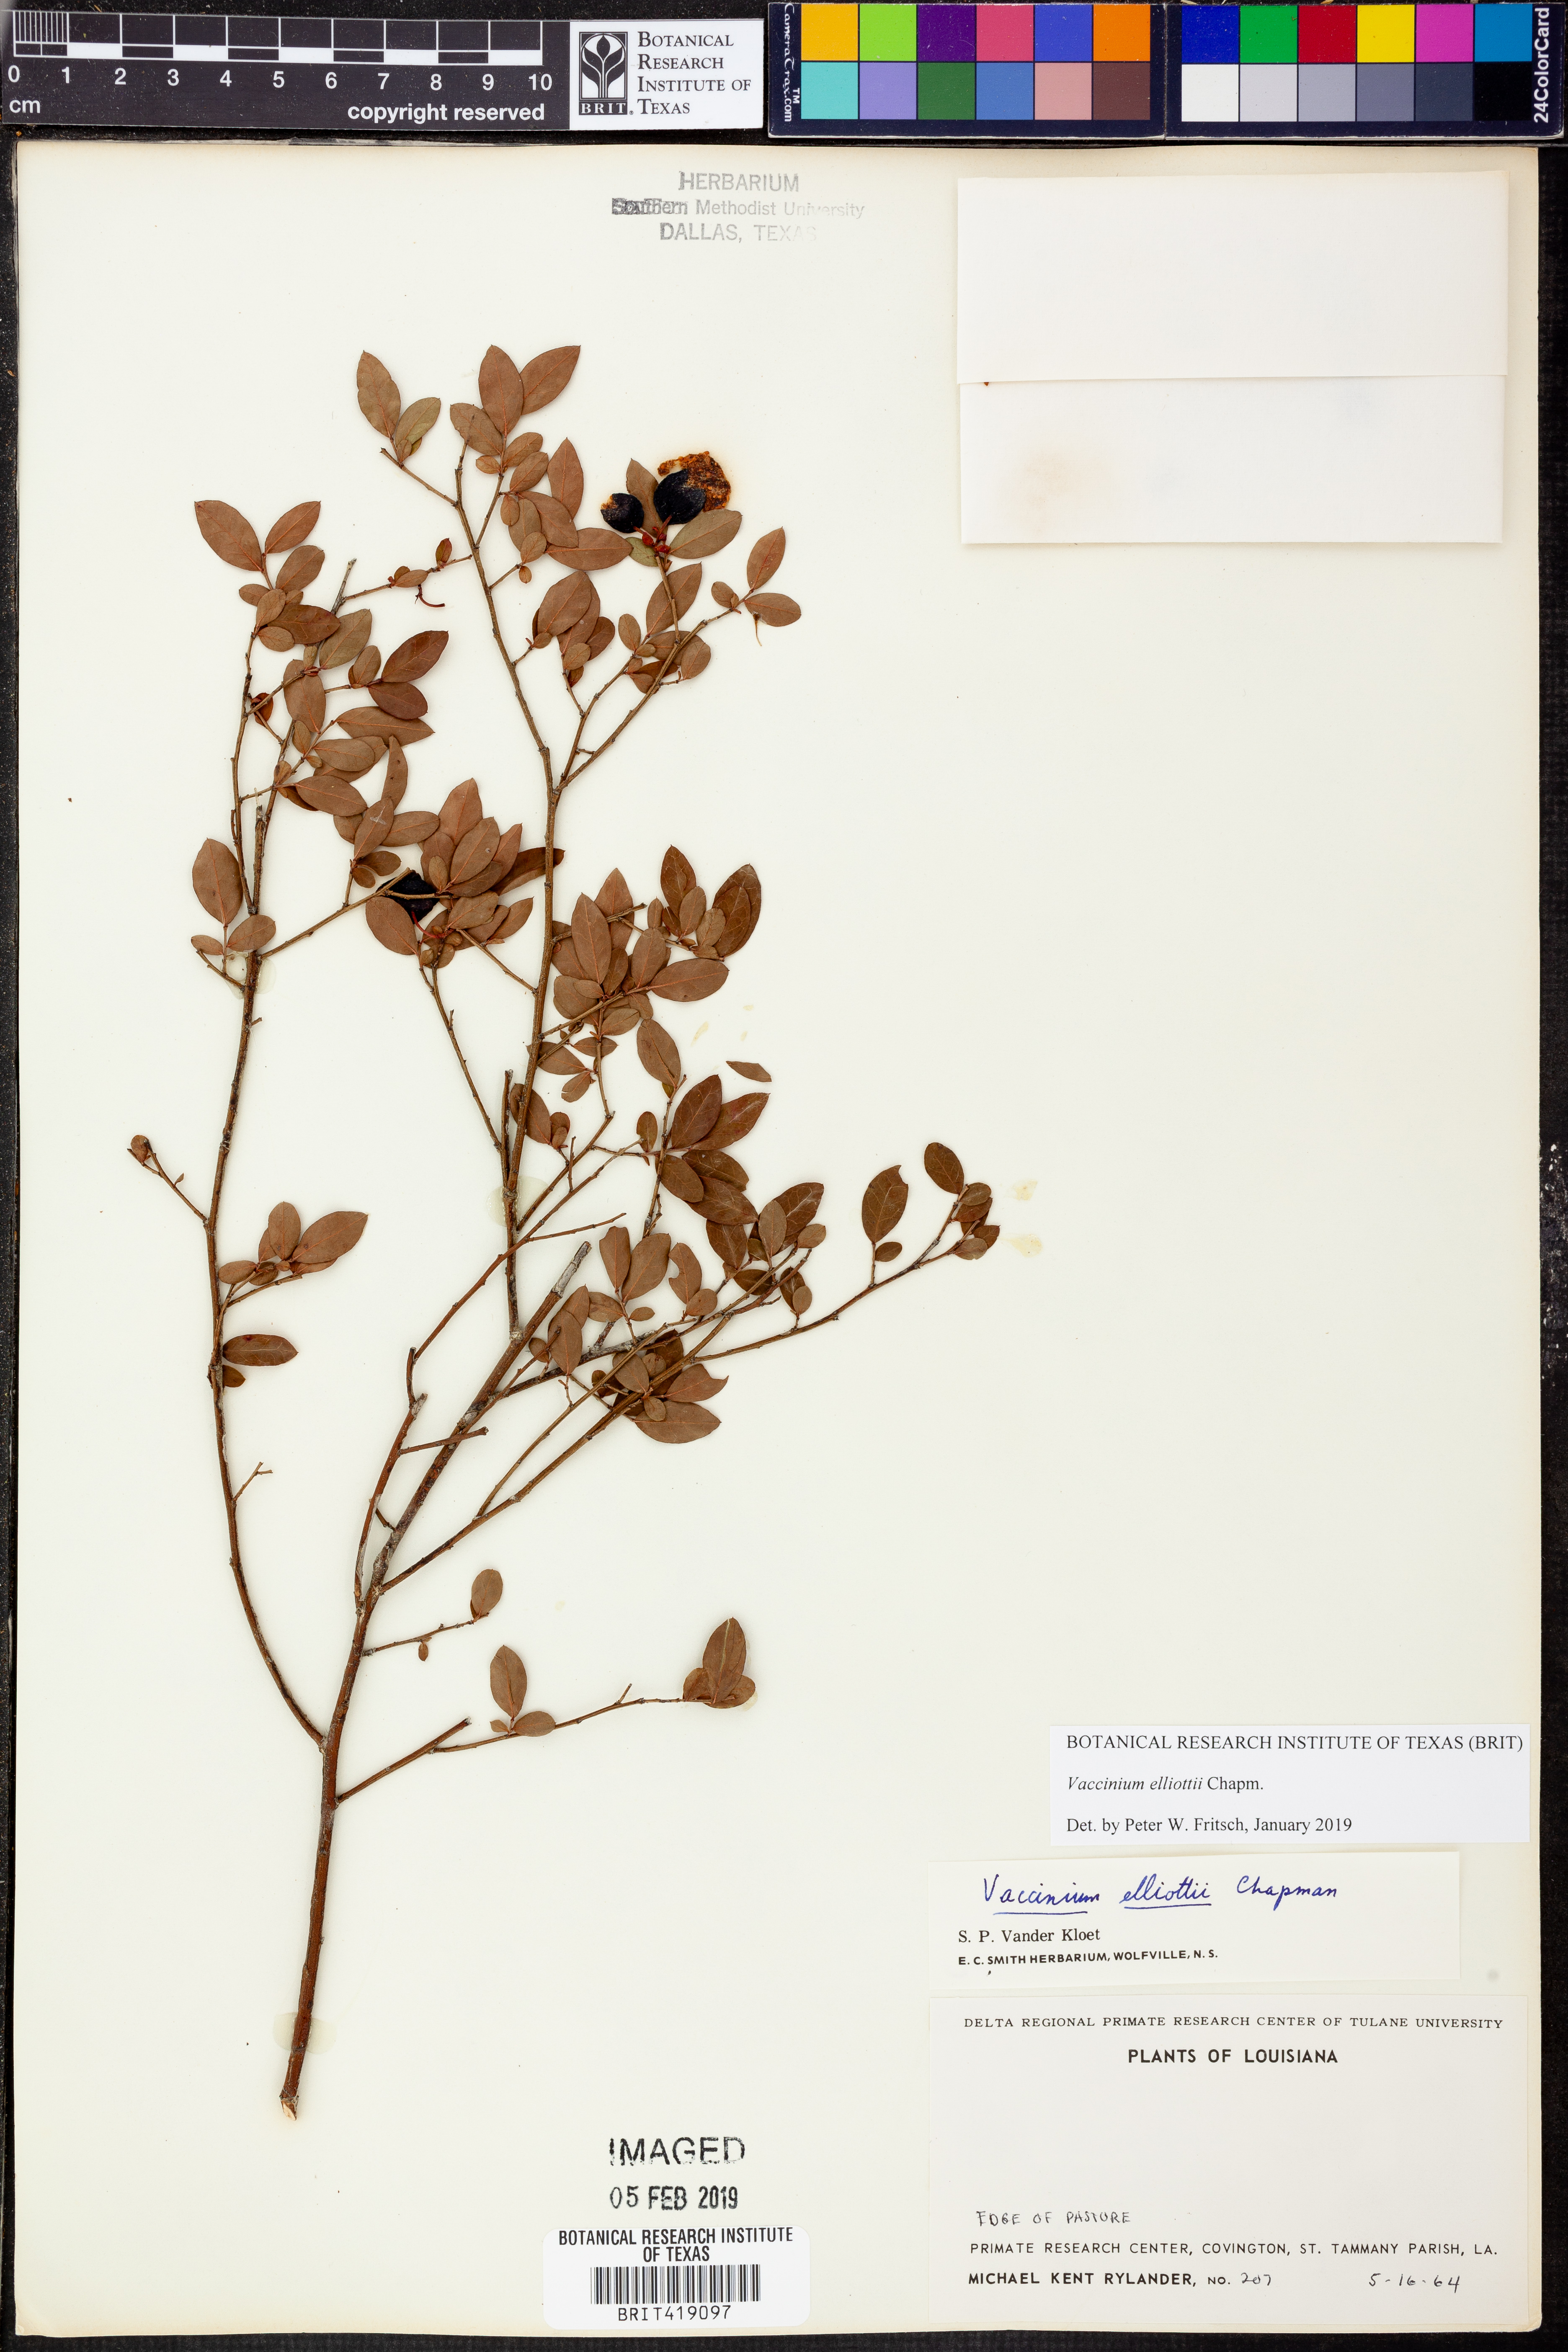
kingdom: Plantae
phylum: Tracheophyta
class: Magnoliopsida
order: Ericales
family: Ericaceae
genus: Vaccinium
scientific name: Vaccinium corymbosum
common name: Blueberry
